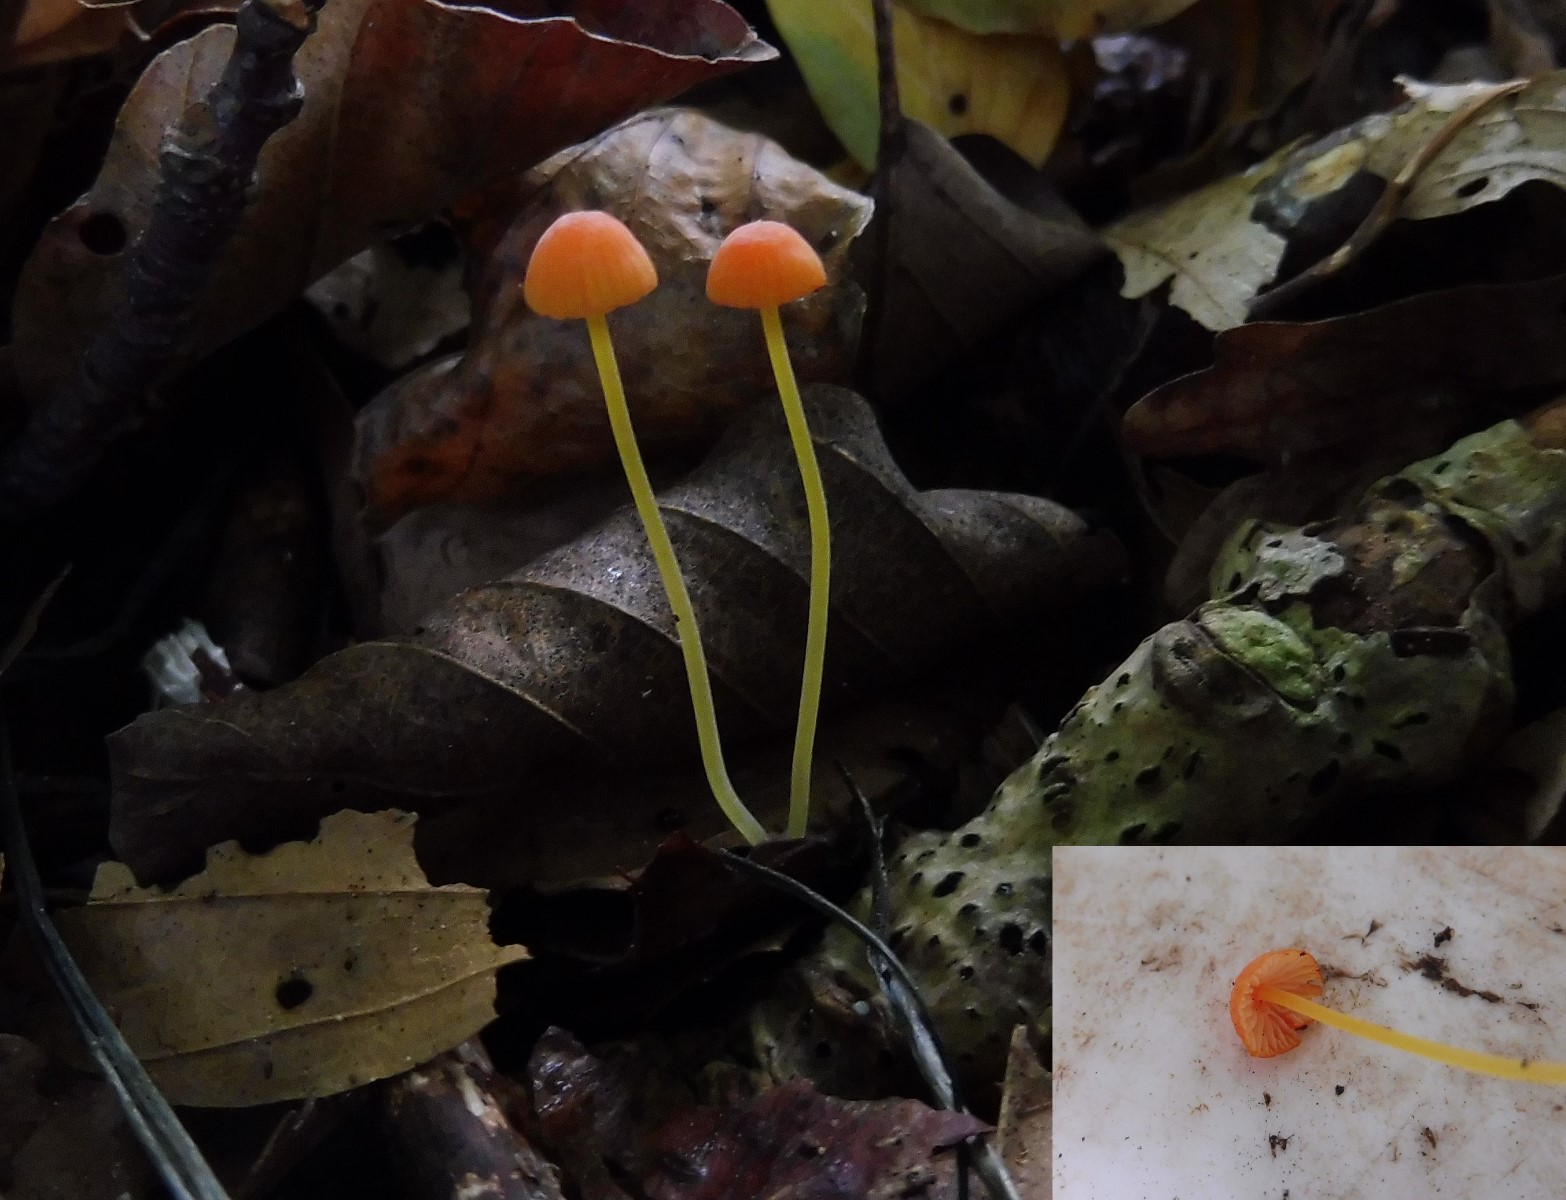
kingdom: Fungi
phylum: Basidiomycota
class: Agaricomycetes
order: Agaricales
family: Mycenaceae
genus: Mycena
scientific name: Mycena acicula
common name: orange huesvamp
